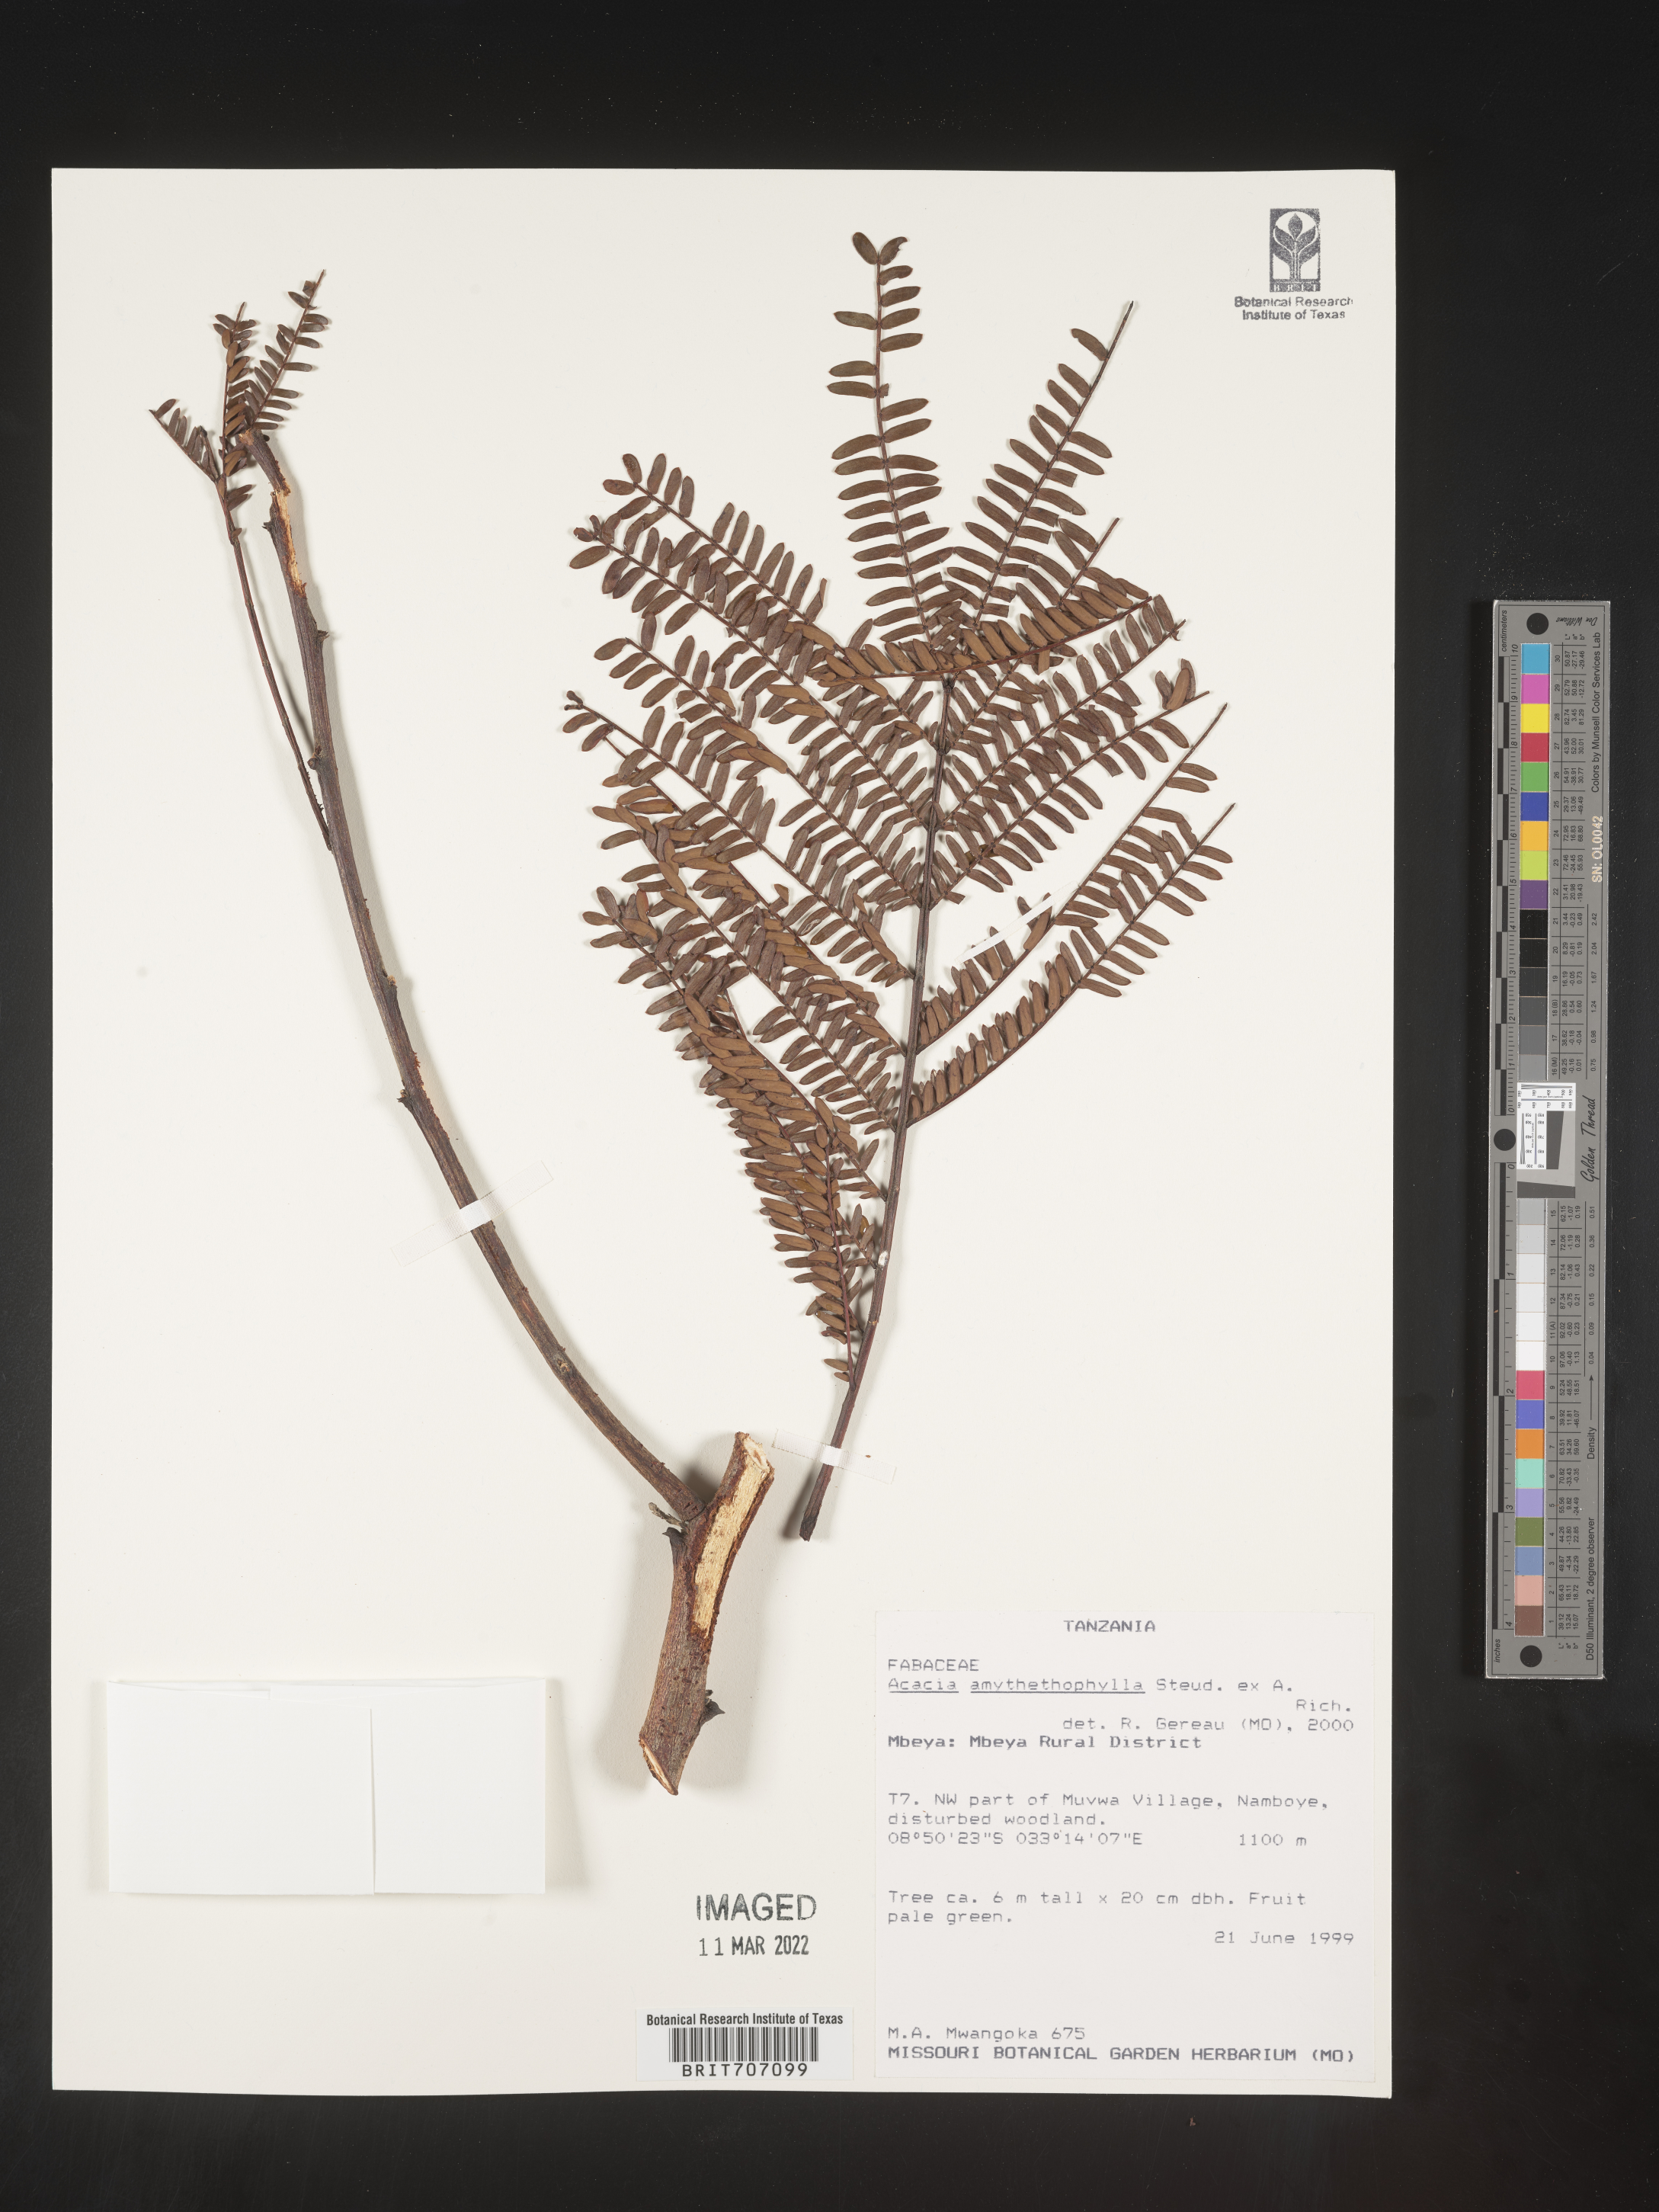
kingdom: Plantae
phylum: Tracheophyta
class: Magnoliopsida
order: Fabales
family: Fabaceae
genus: Acacia
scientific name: Acacia
